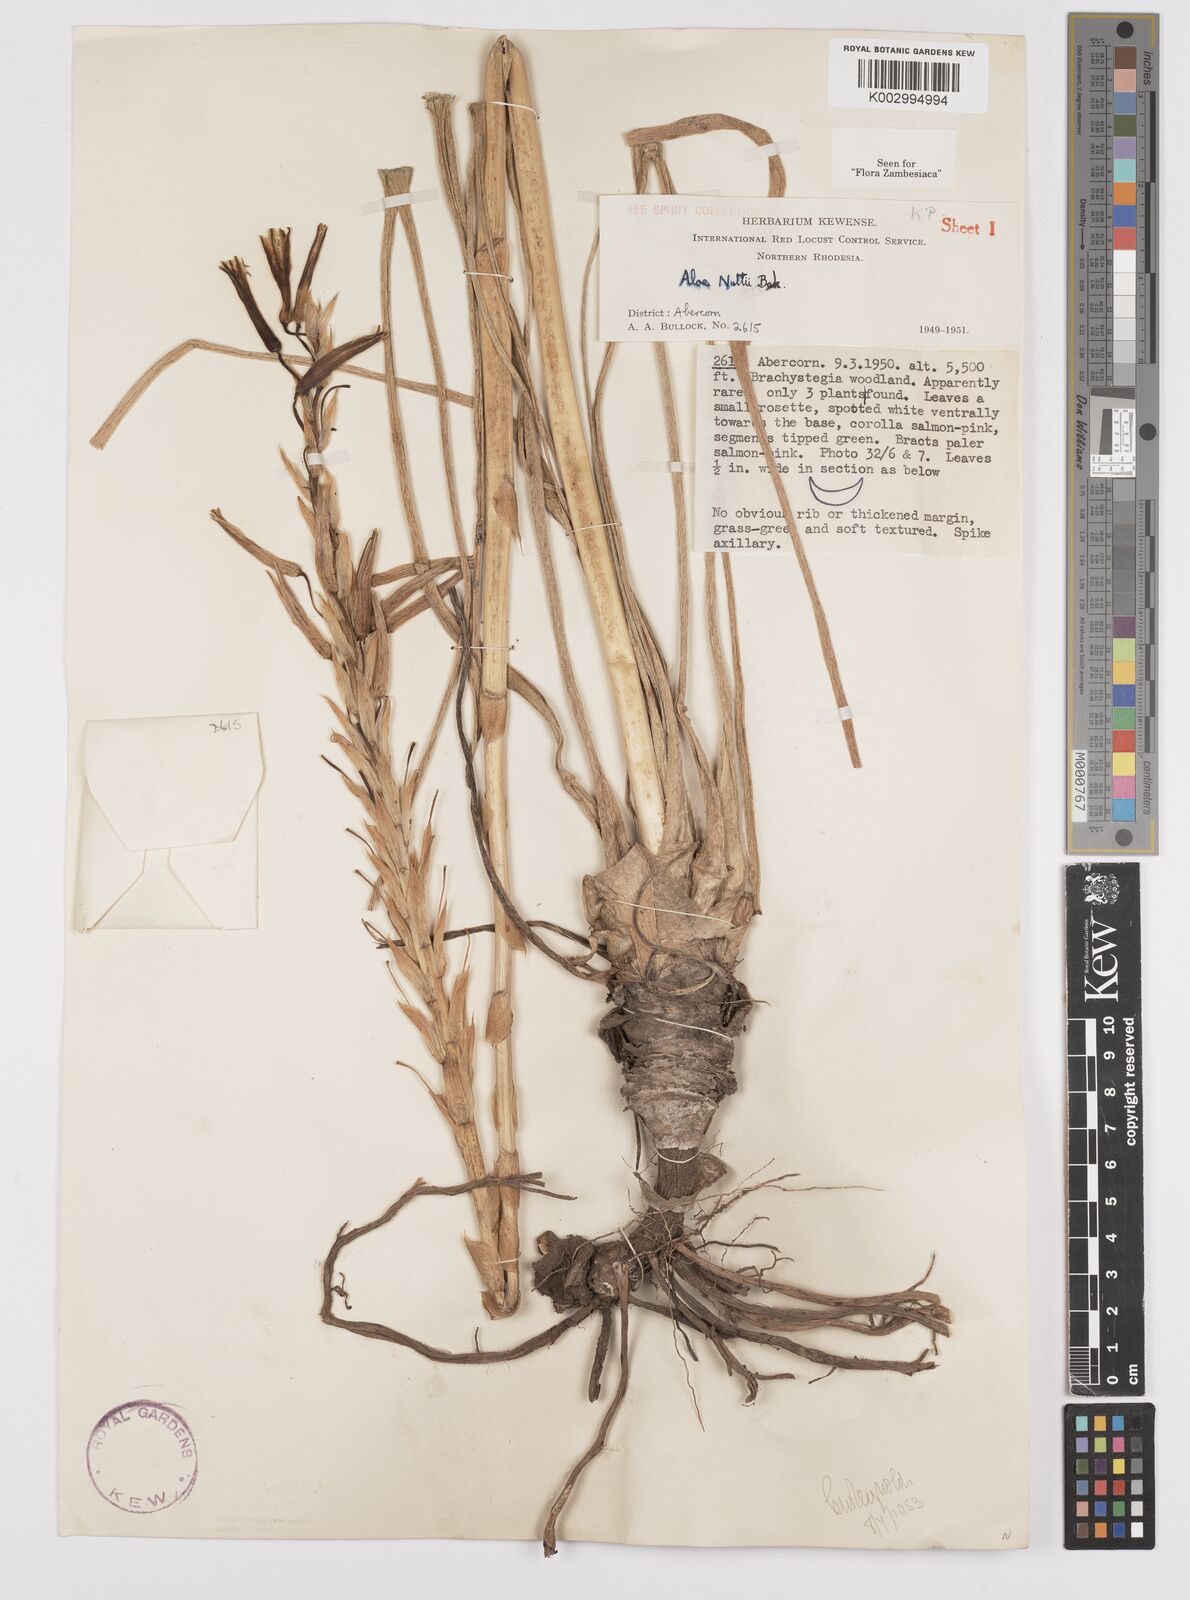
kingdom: Plantae
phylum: Tracheophyta
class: Liliopsida
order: Asparagales
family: Asphodelaceae
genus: Aloe
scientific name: Aloe nuttii
